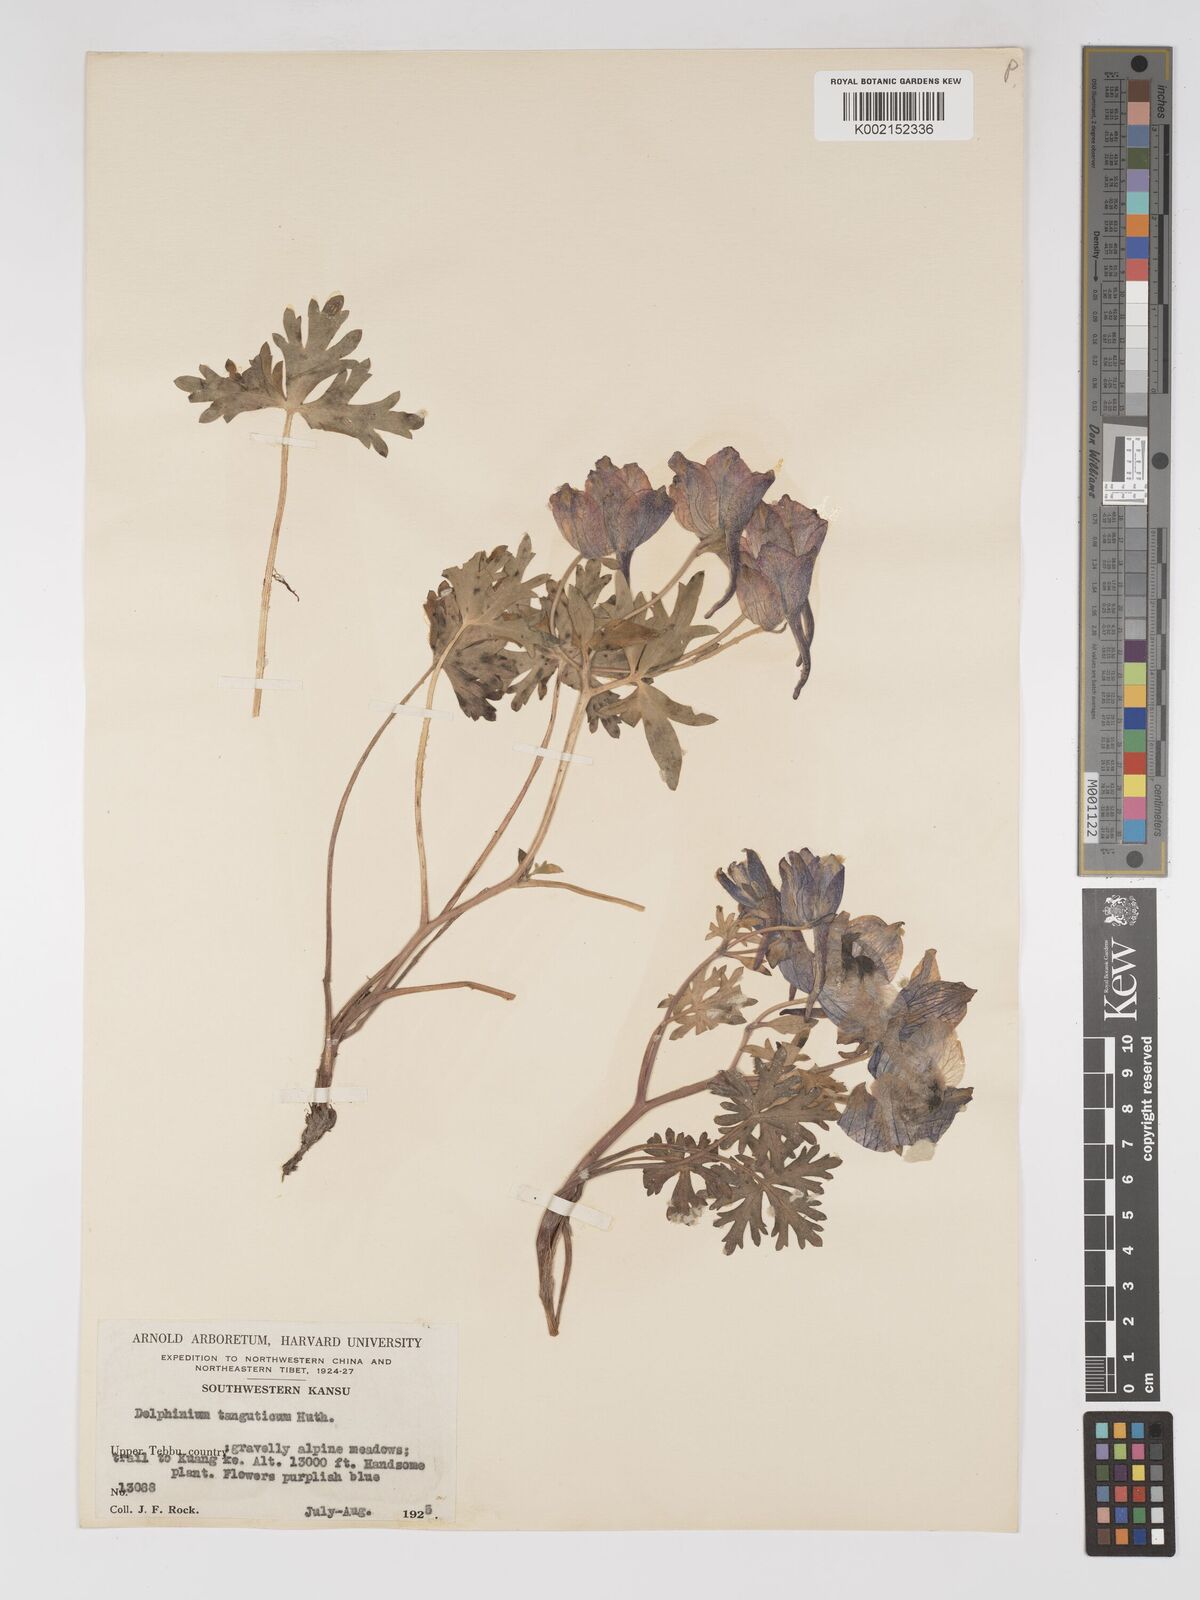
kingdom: Plantae
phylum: Tracheophyta
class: Magnoliopsida
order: Ranunculales
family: Ranunculaceae
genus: Delphinium
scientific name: Delphinium pylzowii
